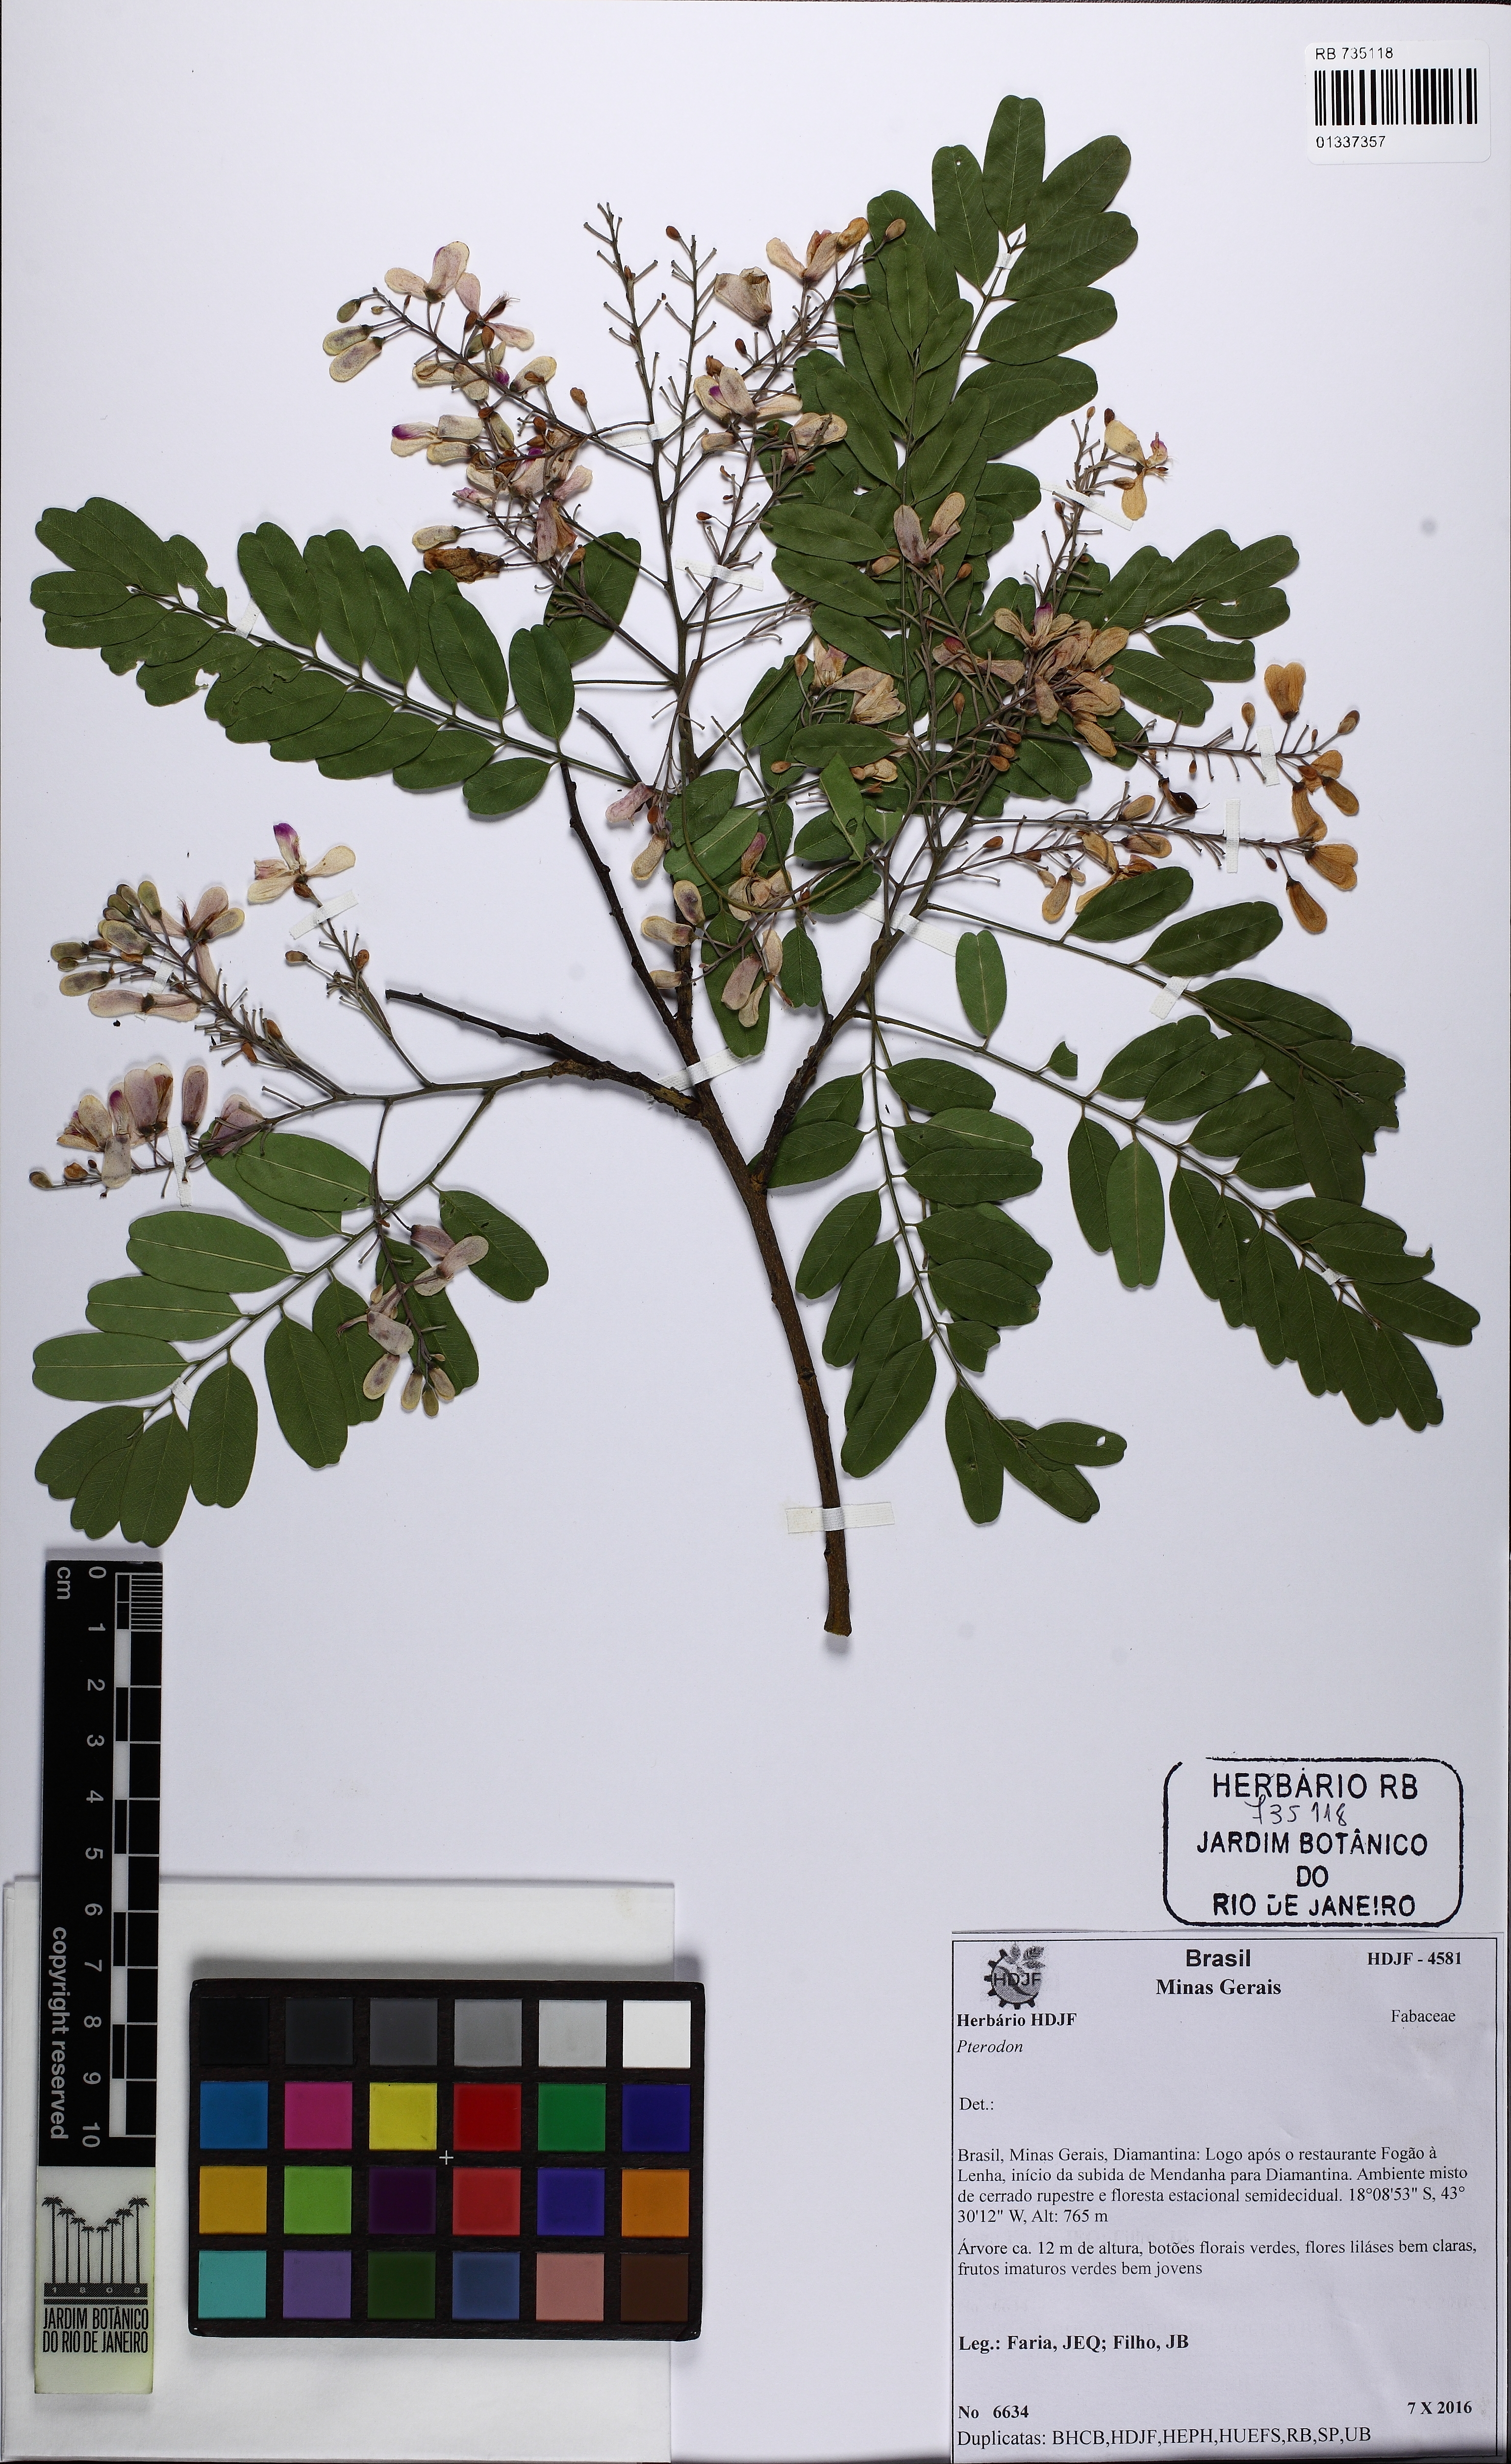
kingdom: Plantae
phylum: Tracheophyta
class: Magnoliopsida
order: Fabales
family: Fabaceae
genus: Pterodon
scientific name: Pterodon
